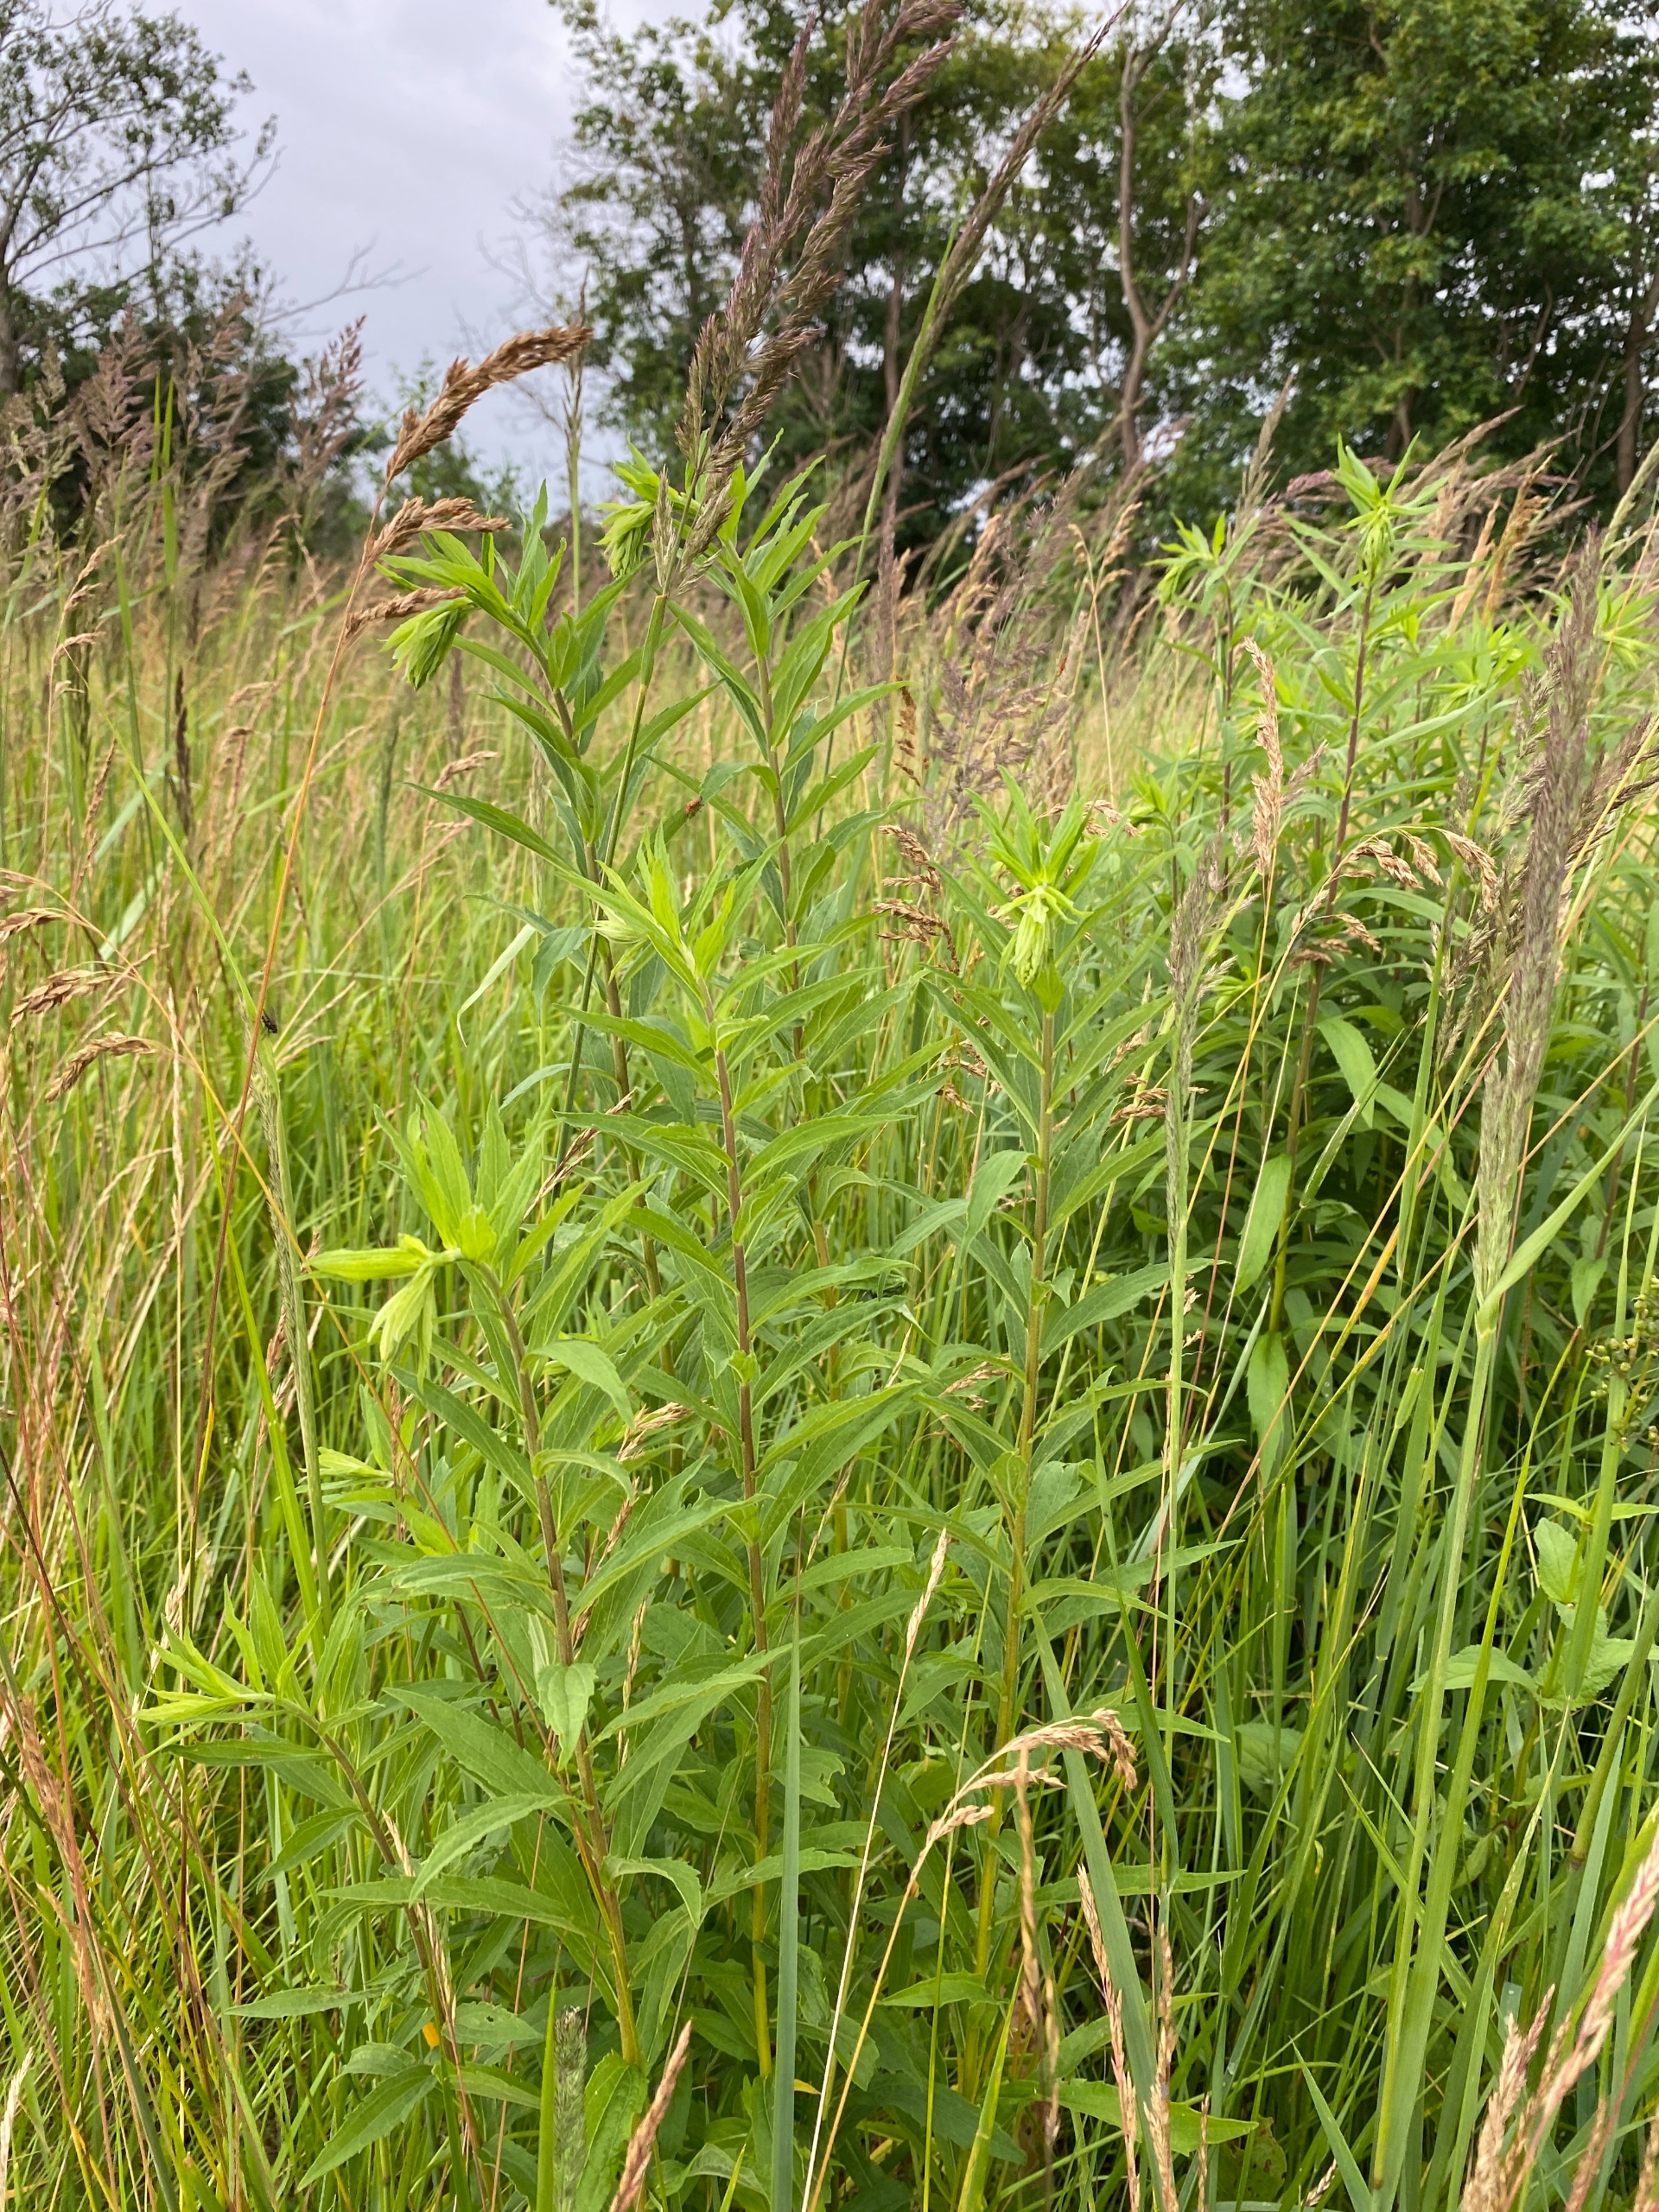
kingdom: Plantae
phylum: Tracheophyta
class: Magnoliopsida
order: Asterales
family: Asteraceae
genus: Solidago
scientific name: Solidago canadensis
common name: Kanadisk gyldenris
